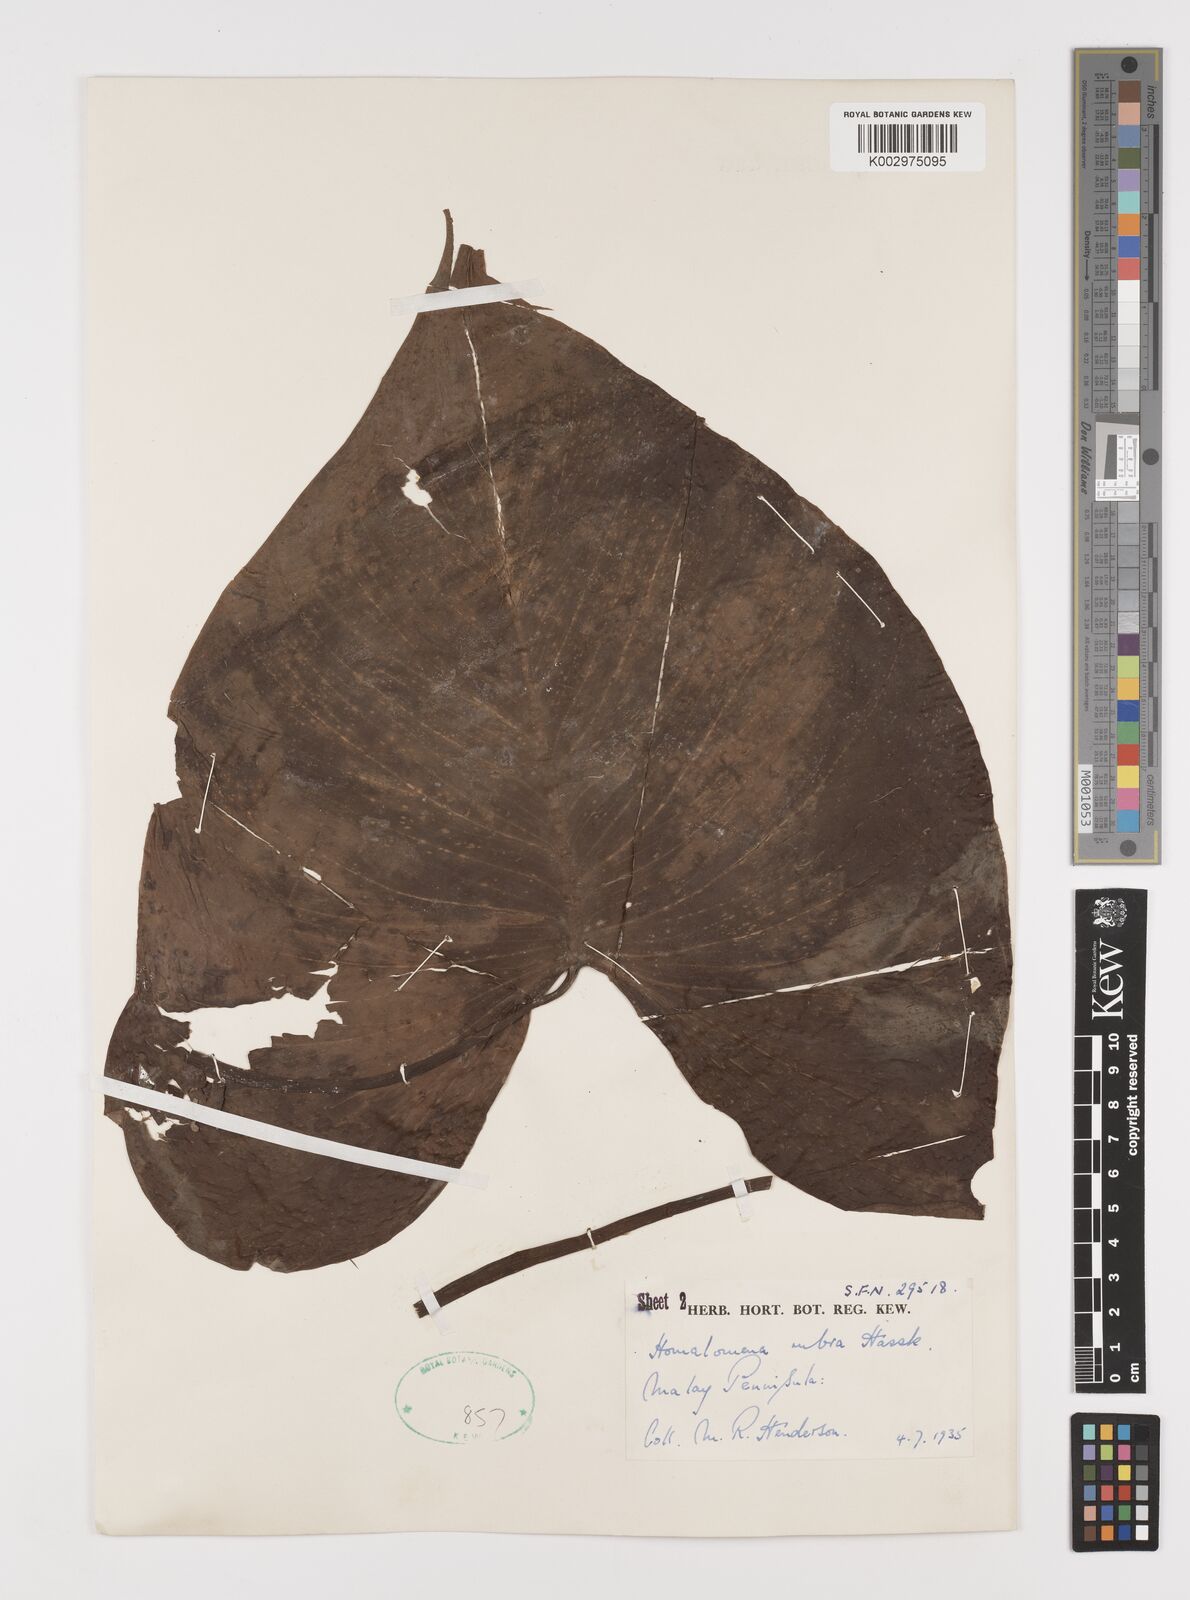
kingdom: Plantae
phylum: Tracheophyta
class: Liliopsida
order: Alismatales
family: Araceae
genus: Homalomena
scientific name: Homalomena pendula
